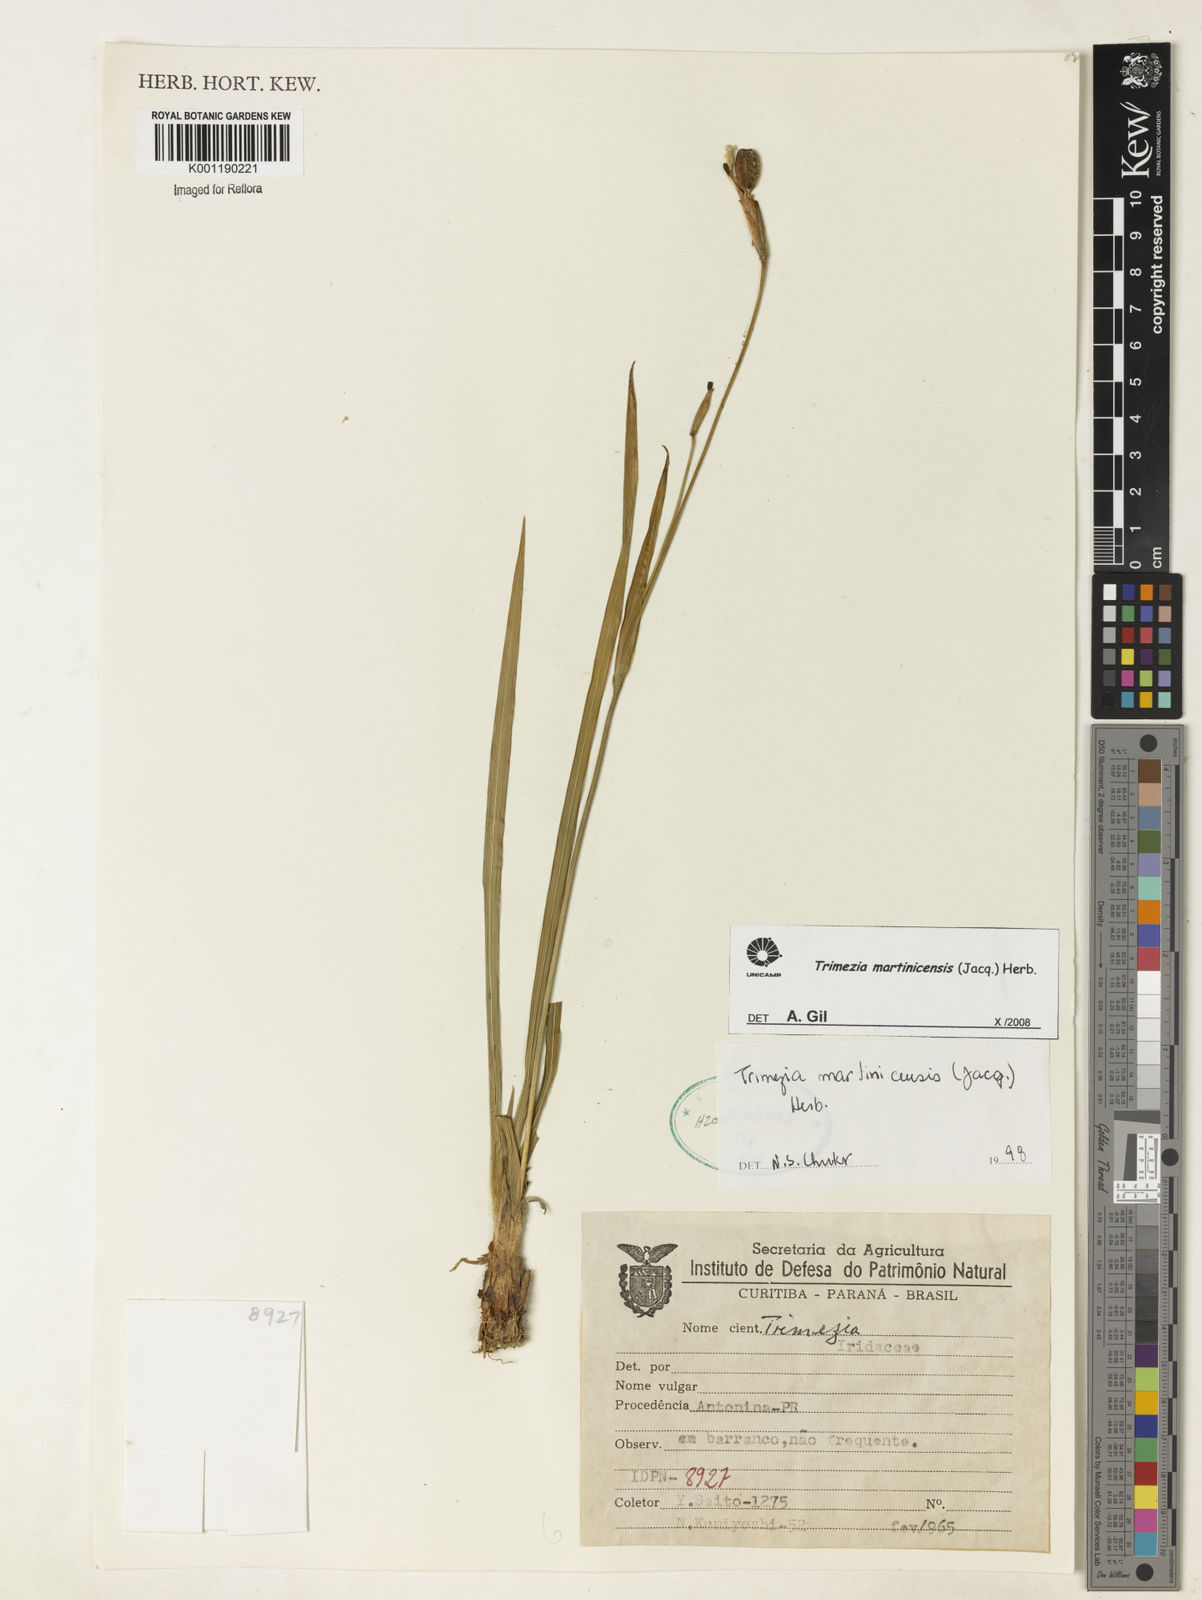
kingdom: Plantae
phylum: Tracheophyta
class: Liliopsida
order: Asparagales
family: Iridaceae
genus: Trimezia
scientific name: Trimezia martinicensis
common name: Martinique trimezia
